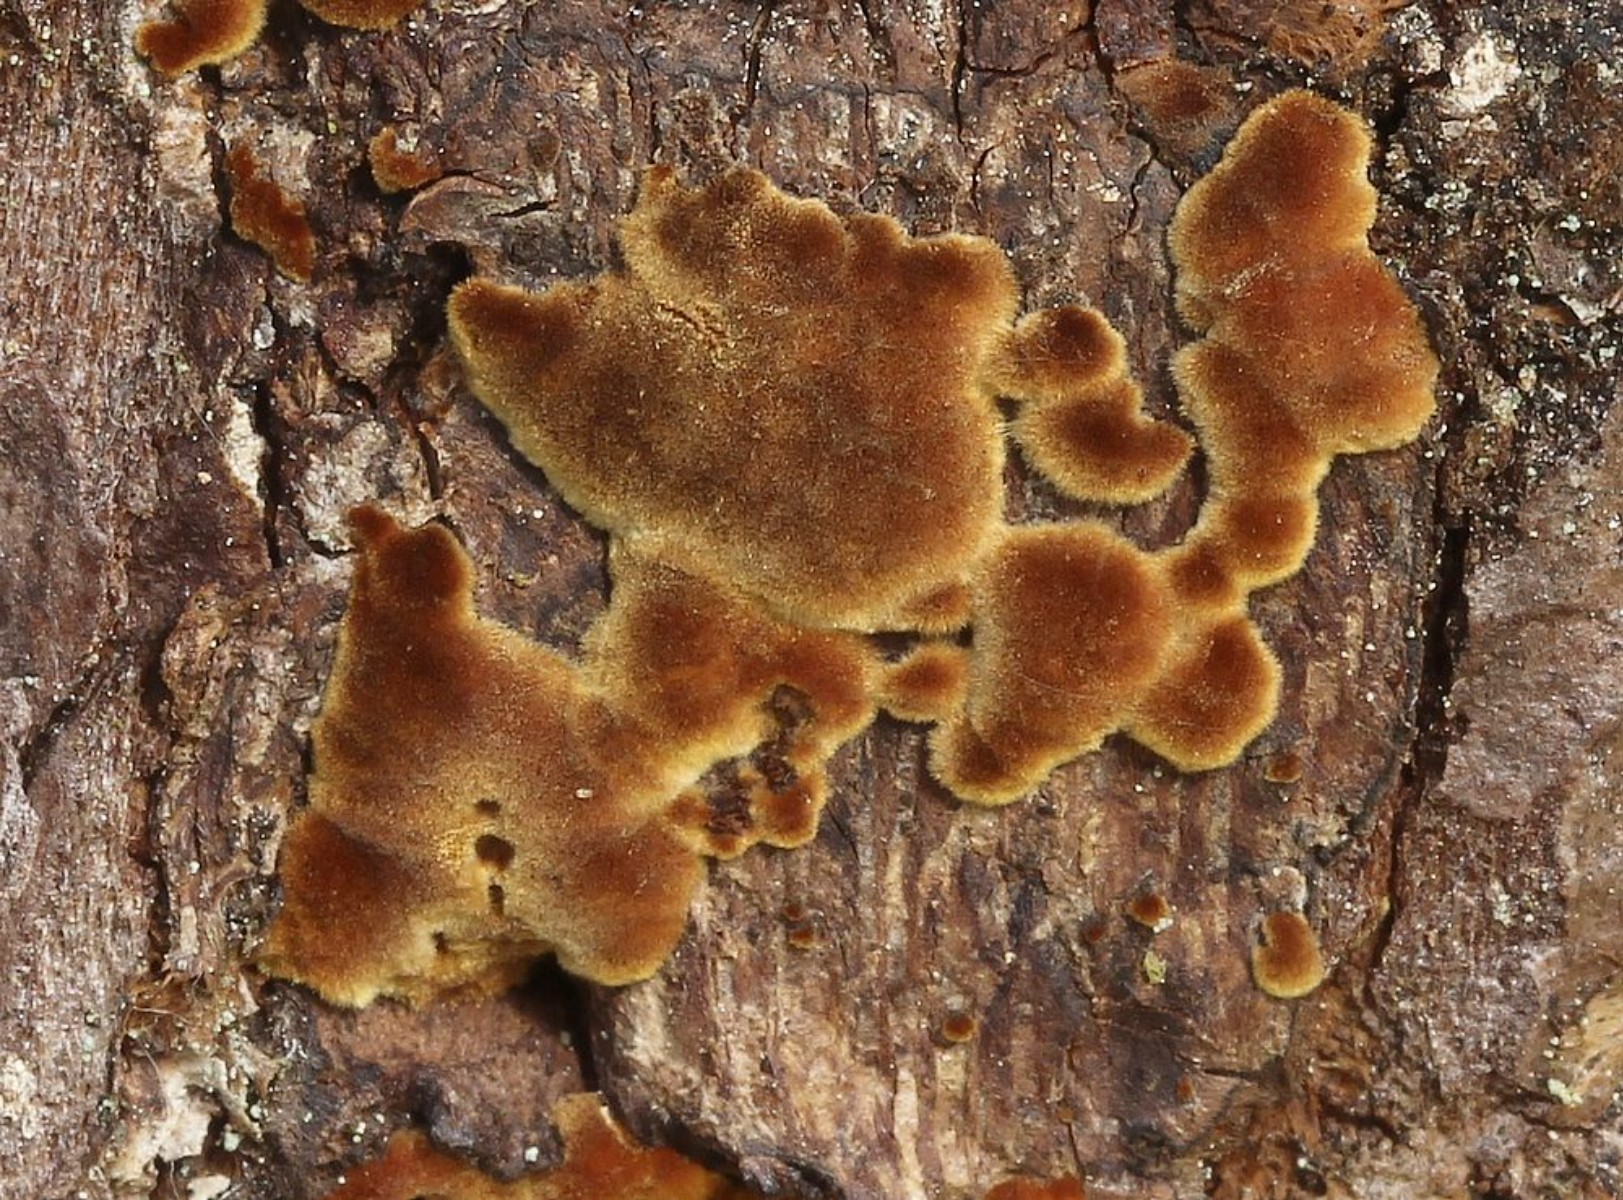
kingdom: Fungi
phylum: Basidiomycota
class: Agaricomycetes
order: Hymenochaetales
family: Hymenochaetaceae
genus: Porodaedalea
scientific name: Porodaedalea pini
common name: fyrre-ildporesvamp
